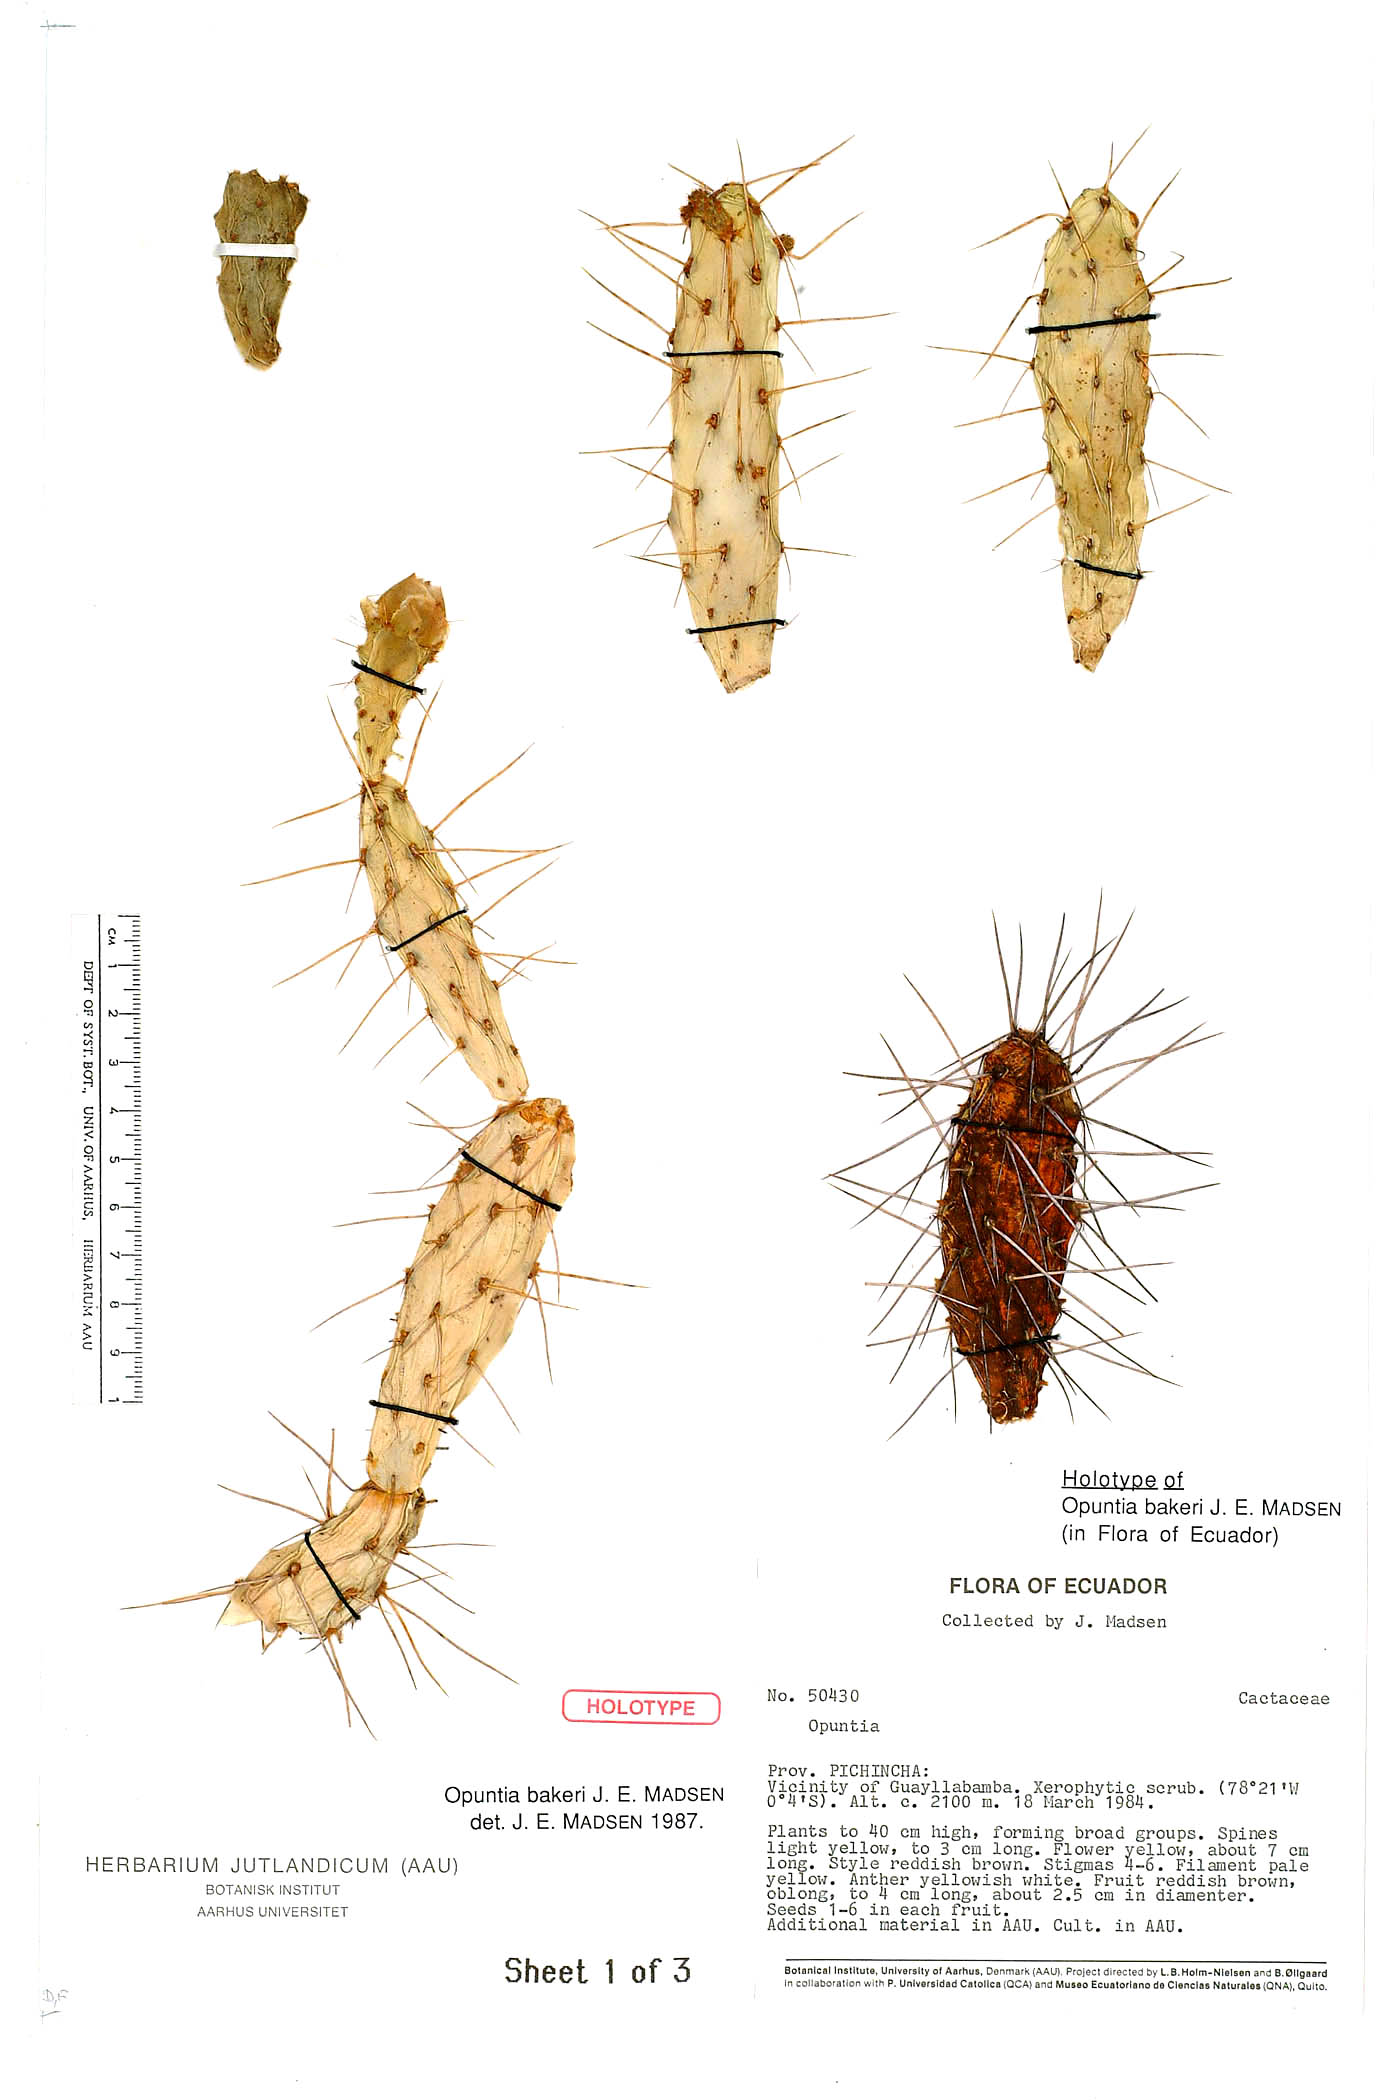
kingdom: Plantae
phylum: Tracheophyta
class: Magnoliopsida
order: Caryophyllales
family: Cactaceae
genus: Opuntia
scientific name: Opuntia aequatorialis
